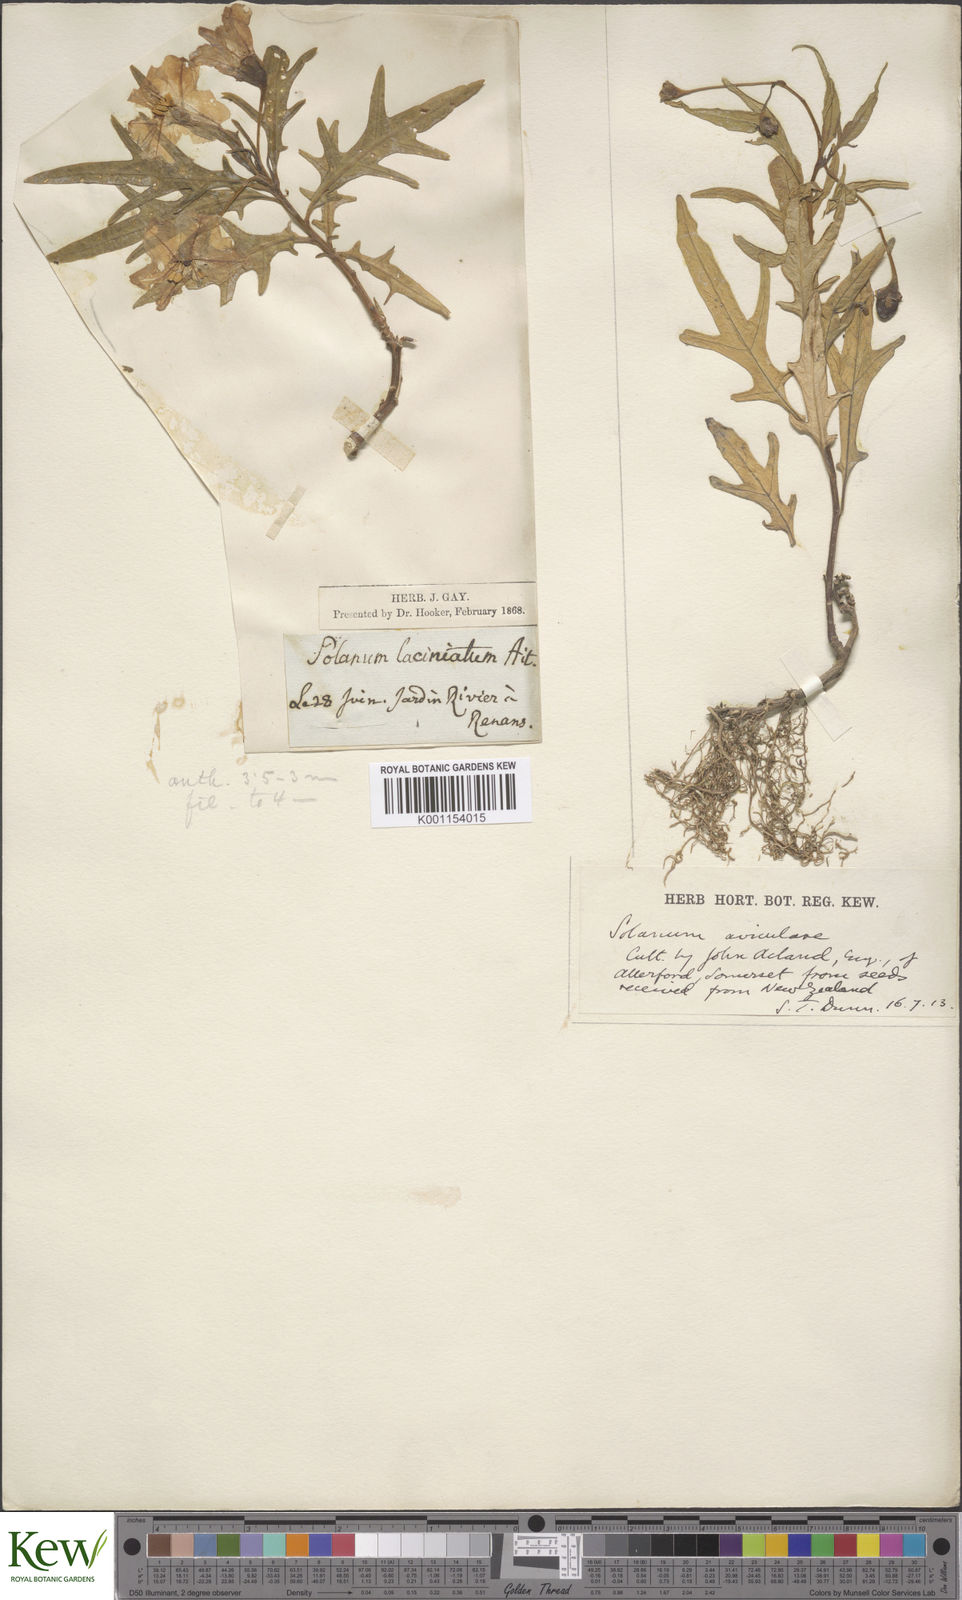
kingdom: Plantae
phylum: Tracheophyta
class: Magnoliopsida
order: Solanales
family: Solanaceae
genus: Solanum
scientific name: Solanum laciniatum
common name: Kangaroo-apple
